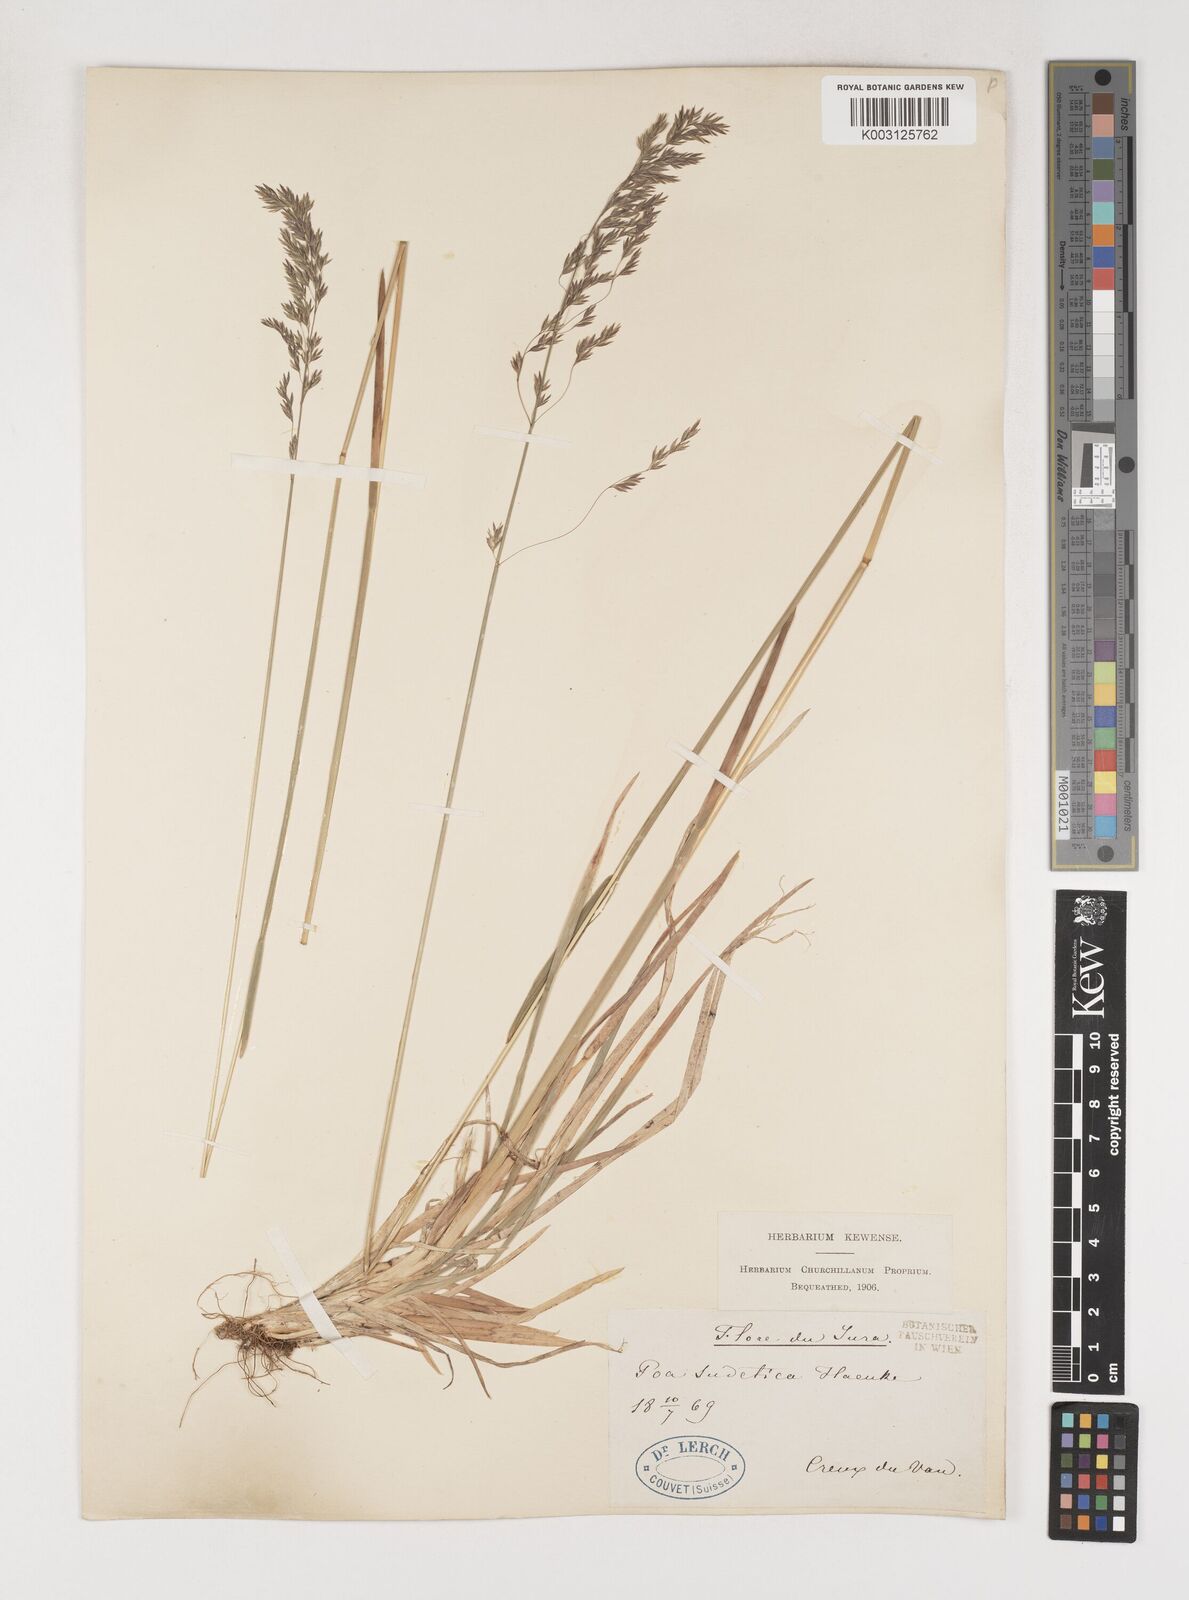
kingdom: Plantae
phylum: Tracheophyta
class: Liliopsida
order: Poales
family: Poaceae
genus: Poa
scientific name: Poa chaixii
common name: Broad-leaved meadow-grass
